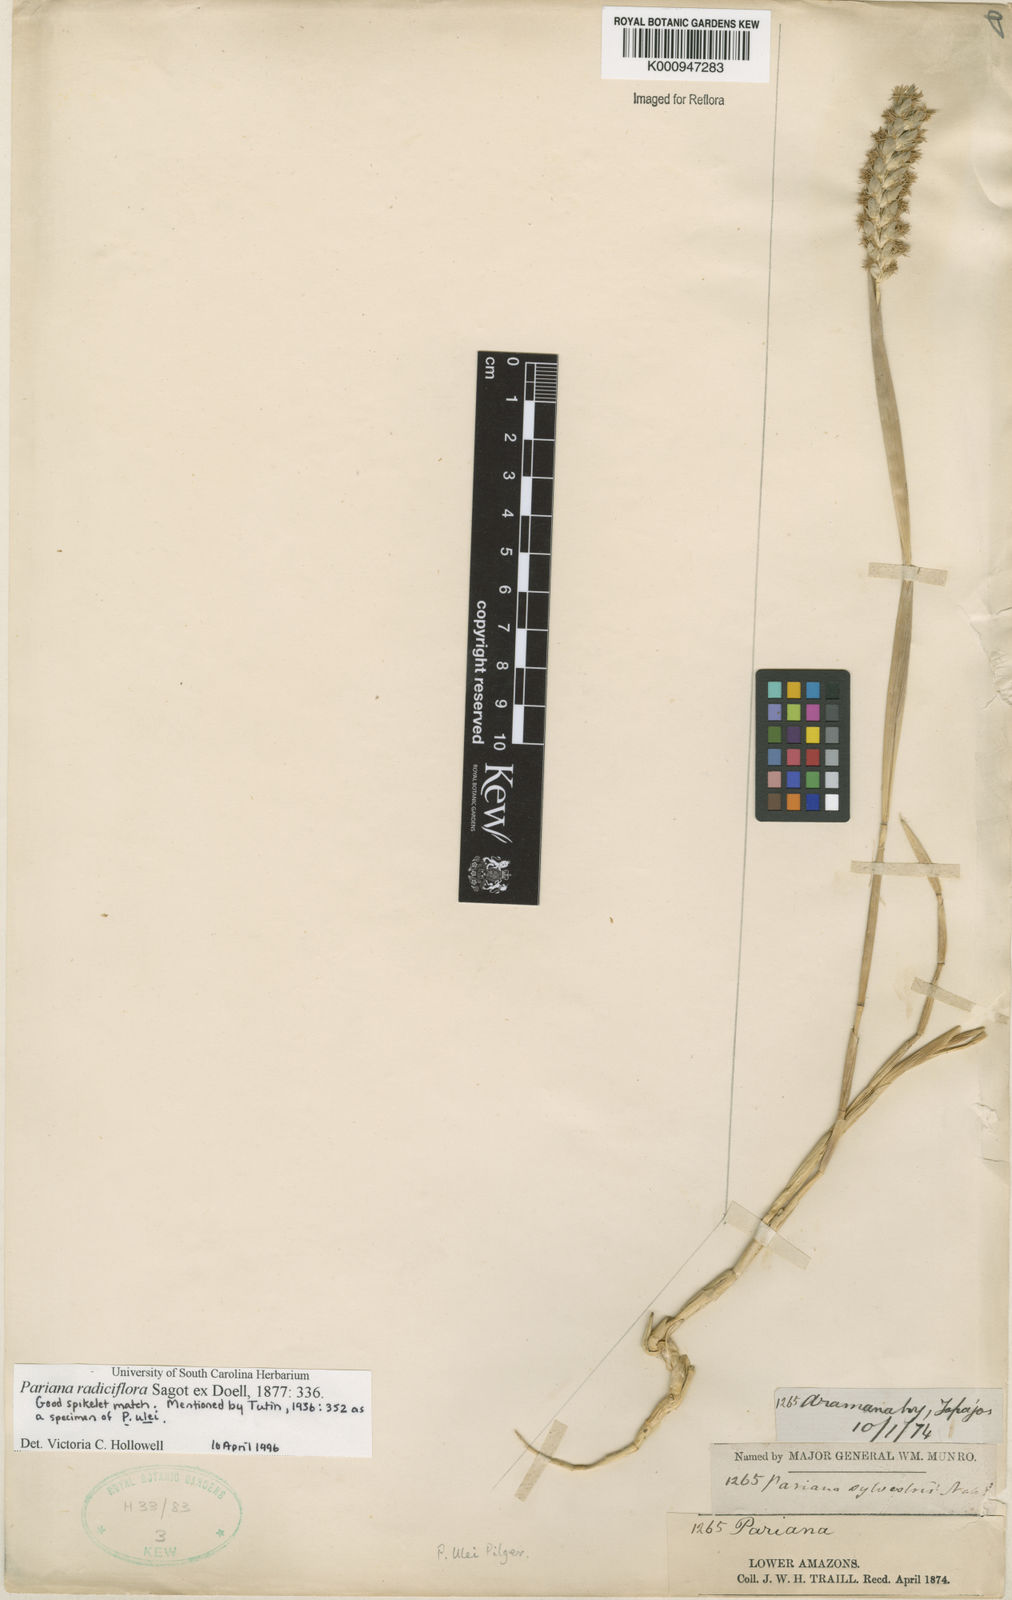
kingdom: Plantae
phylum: Tracheophyta
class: Liliopsida
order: Poales
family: Poaceae
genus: Pariana
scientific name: Pariana
